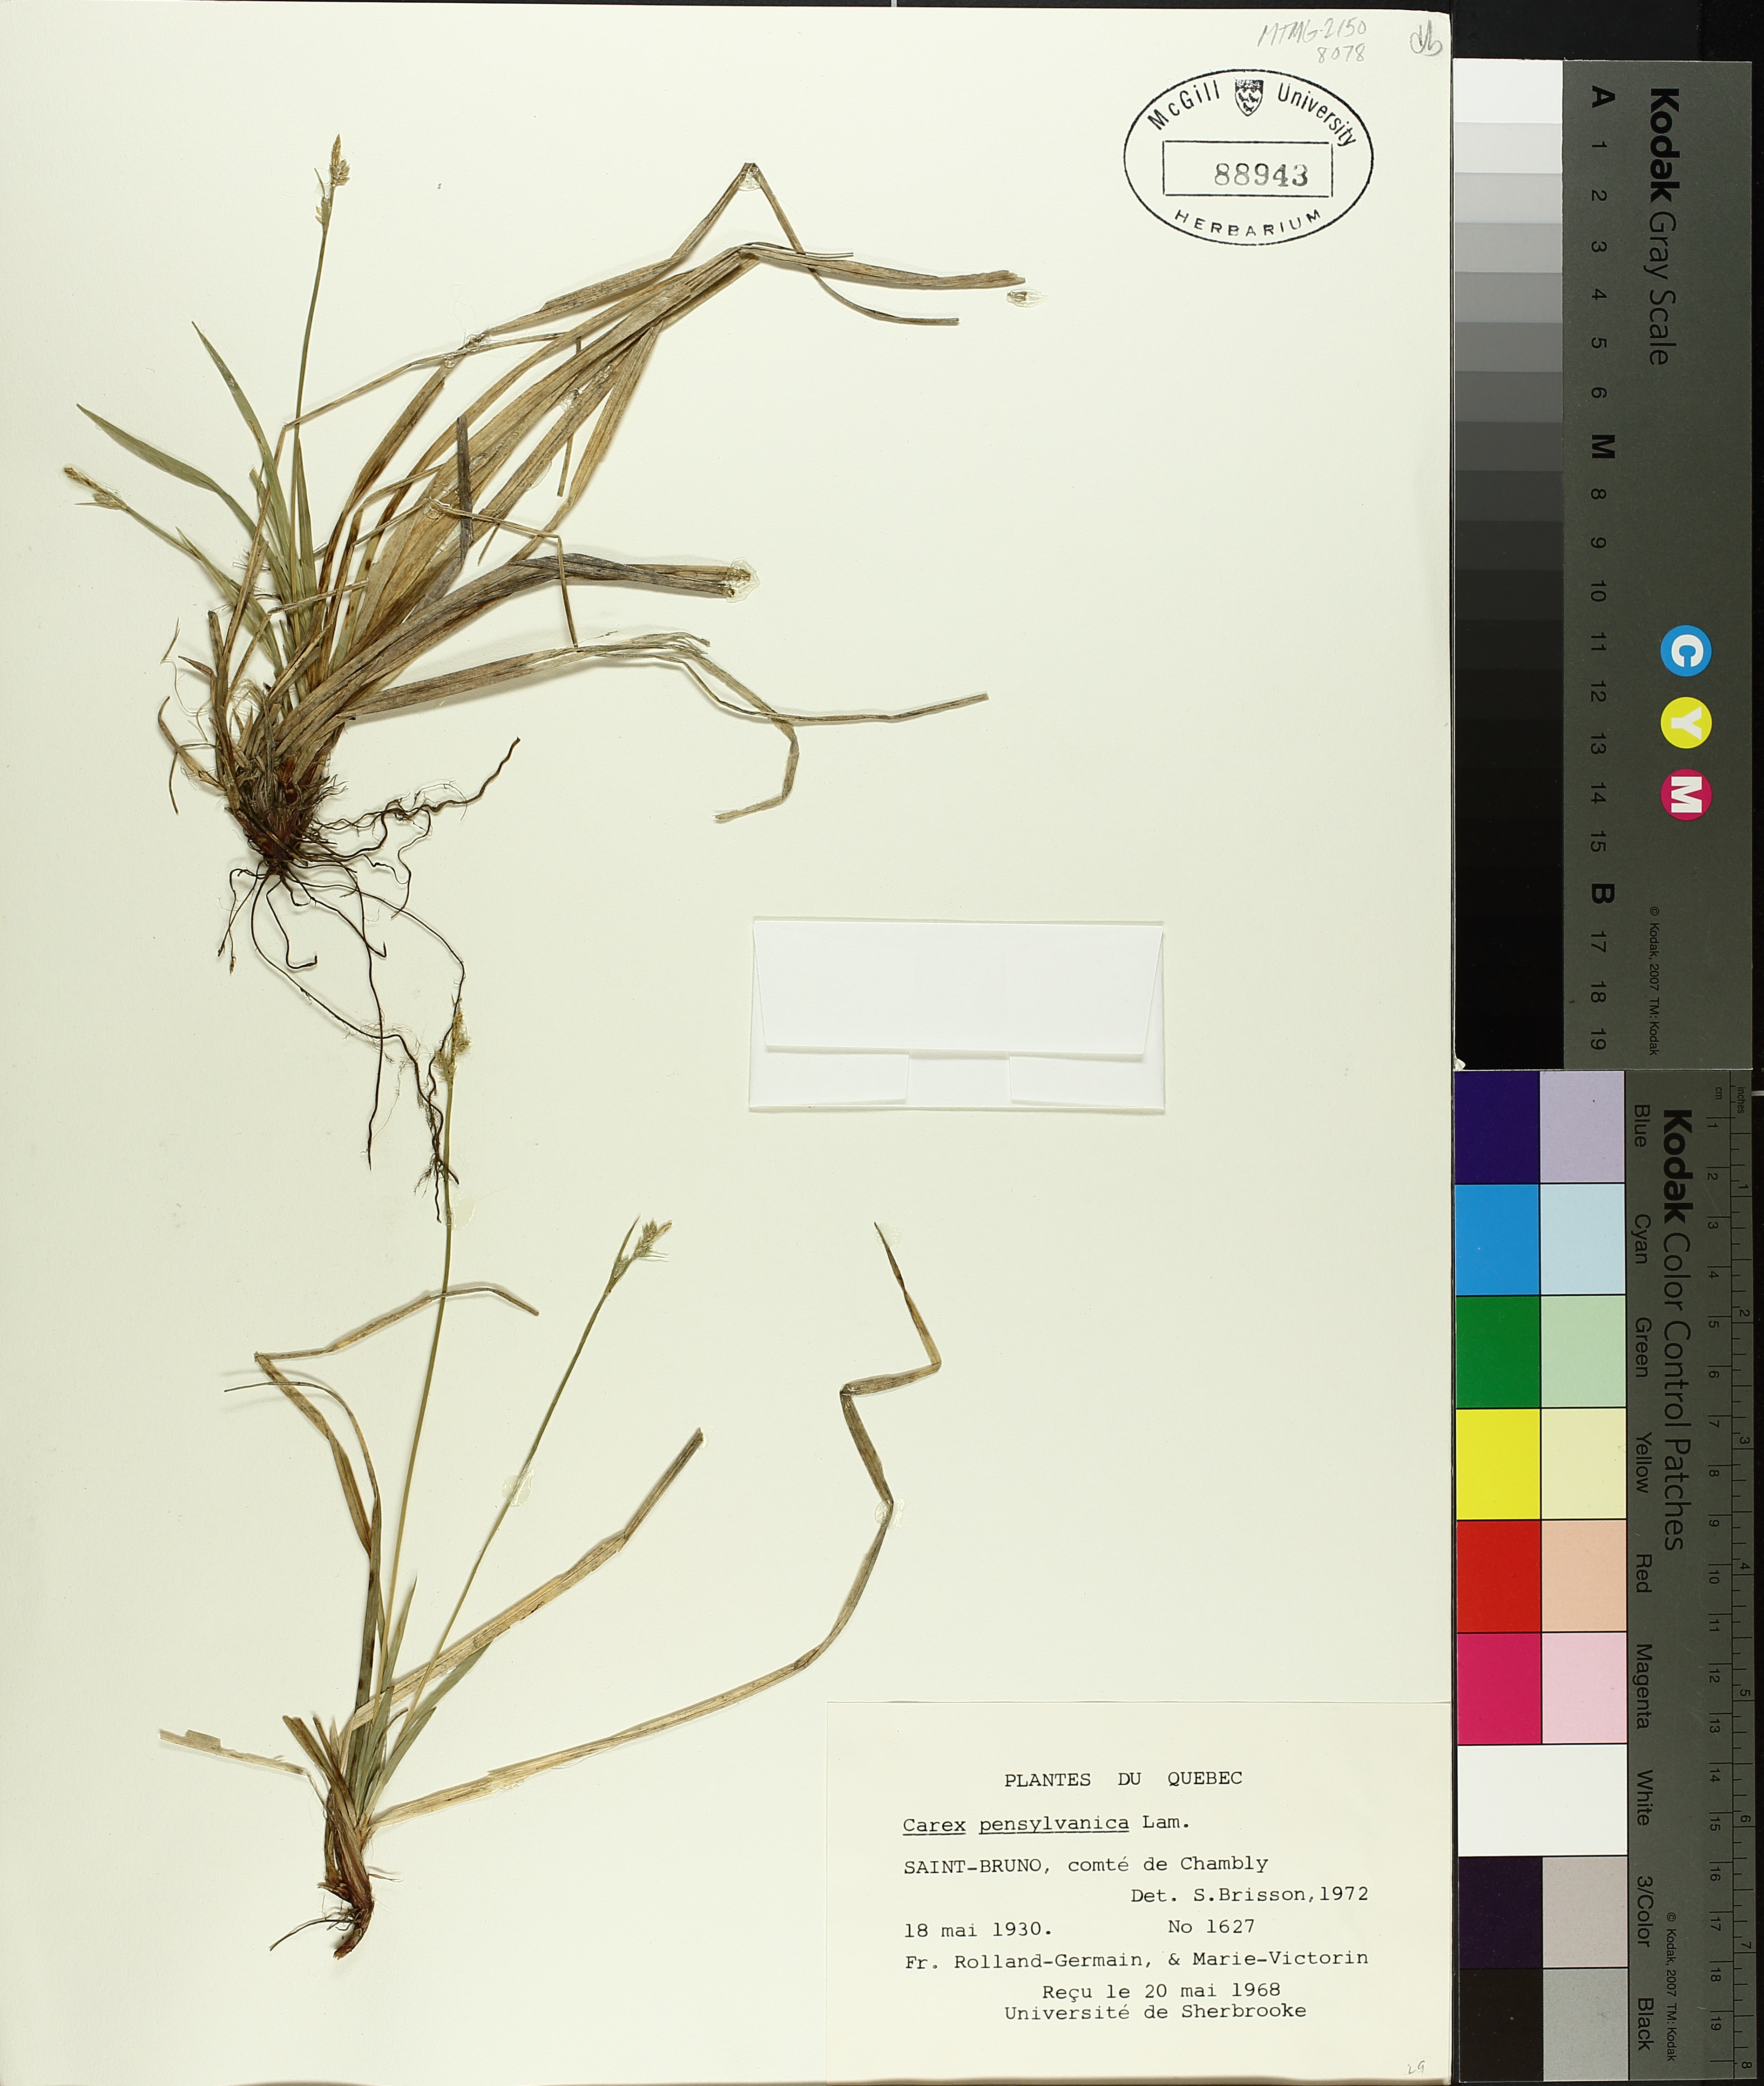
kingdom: Plantae
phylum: Tracheophyta
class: Liliopsida
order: Poales
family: Cyperaceae
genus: Carex
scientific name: Carex pensylvanica
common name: Common oak sedge
